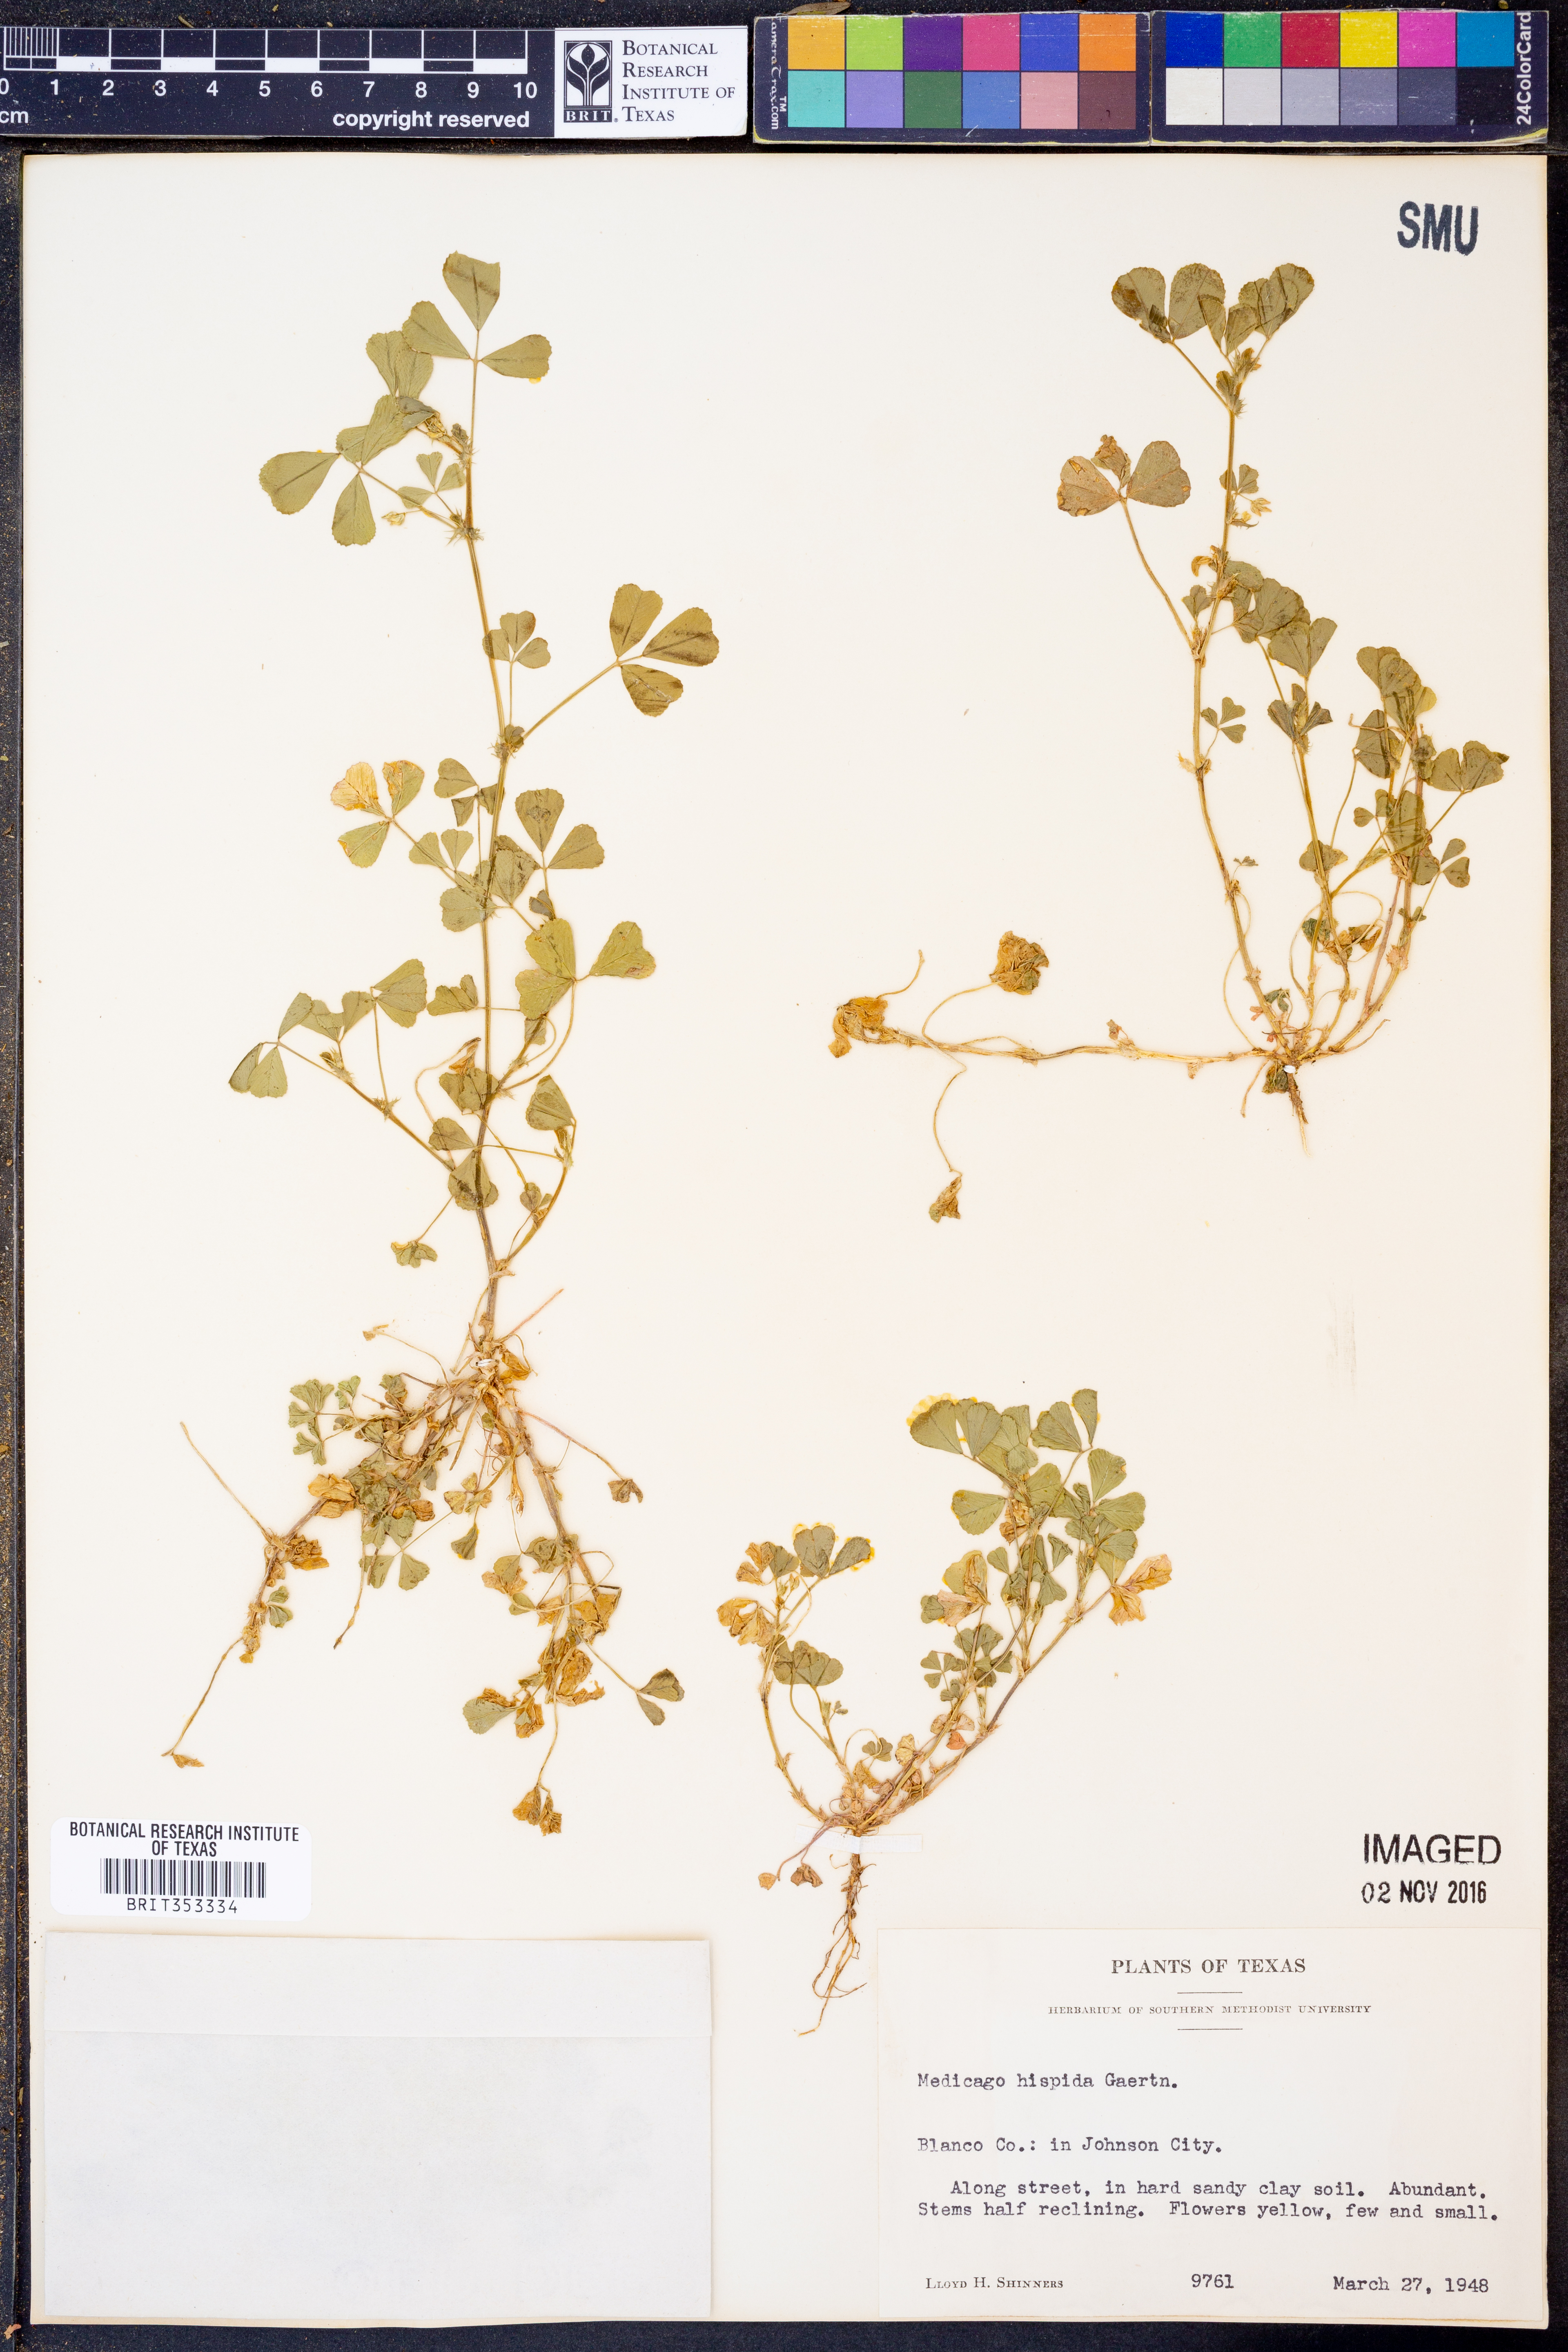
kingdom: Plantae
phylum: Tracheophyta
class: Magnoliopsida
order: Fabales
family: Fabaceae
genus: Medicago
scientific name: Medicago polymorpha
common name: Burclover
